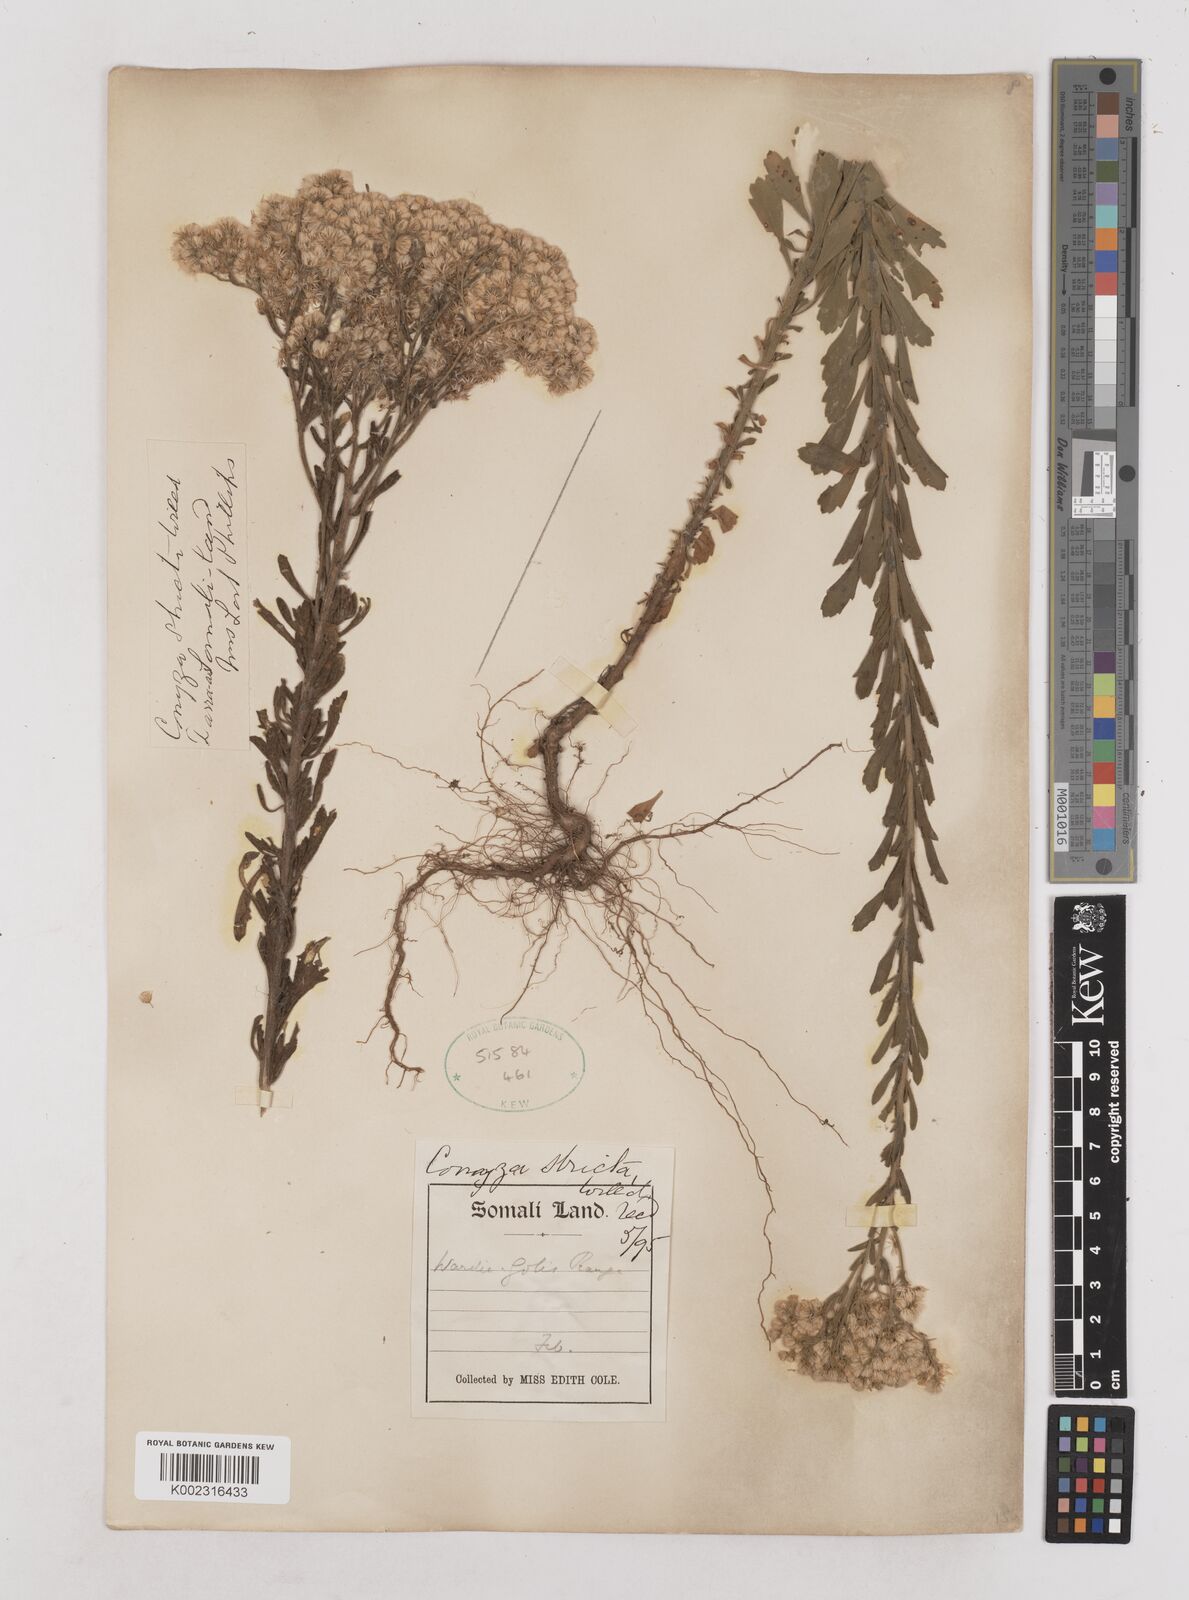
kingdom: Plantae
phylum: Tracheophyta
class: Magnoliopsida
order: Asterales
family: Asteraceae
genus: Nidorella
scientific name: Nidorella triloba
